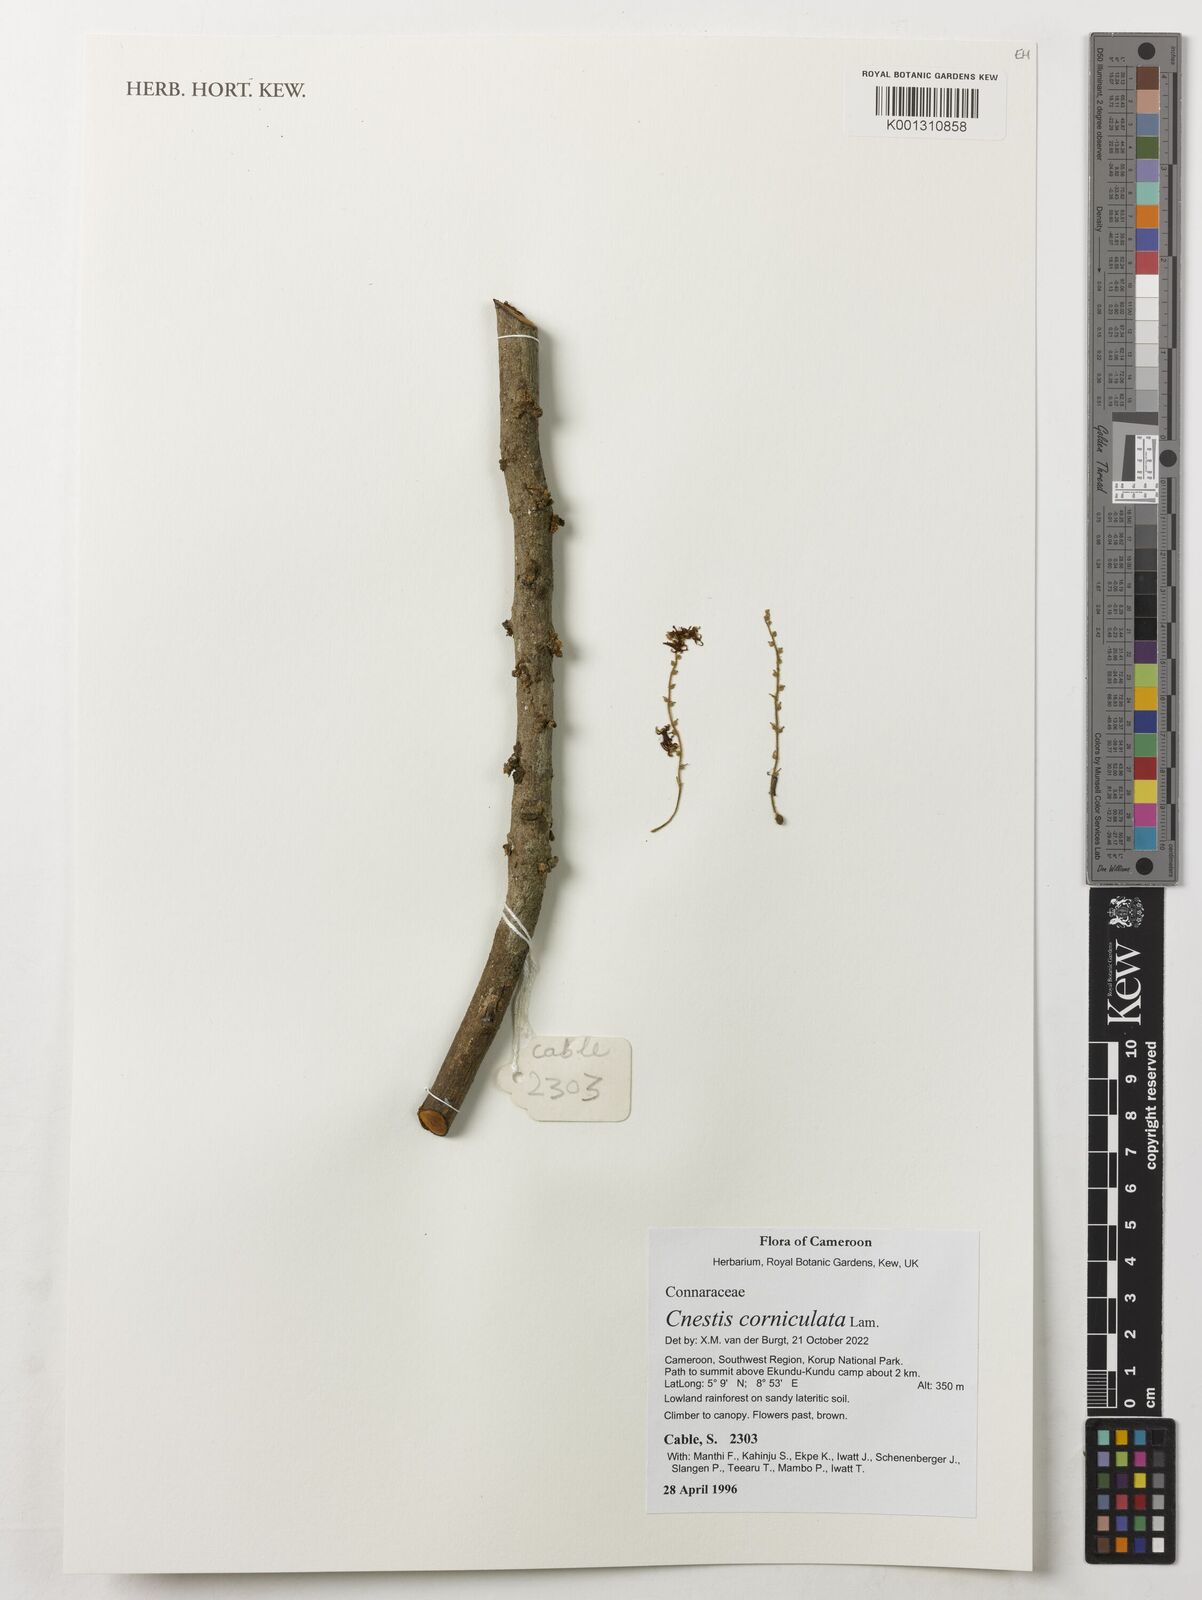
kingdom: Plantae
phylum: Tracheophyta
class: Magnoliopsida
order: Oxalidales
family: Connaraceae
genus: Cnestis
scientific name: Cnestis corniculata
